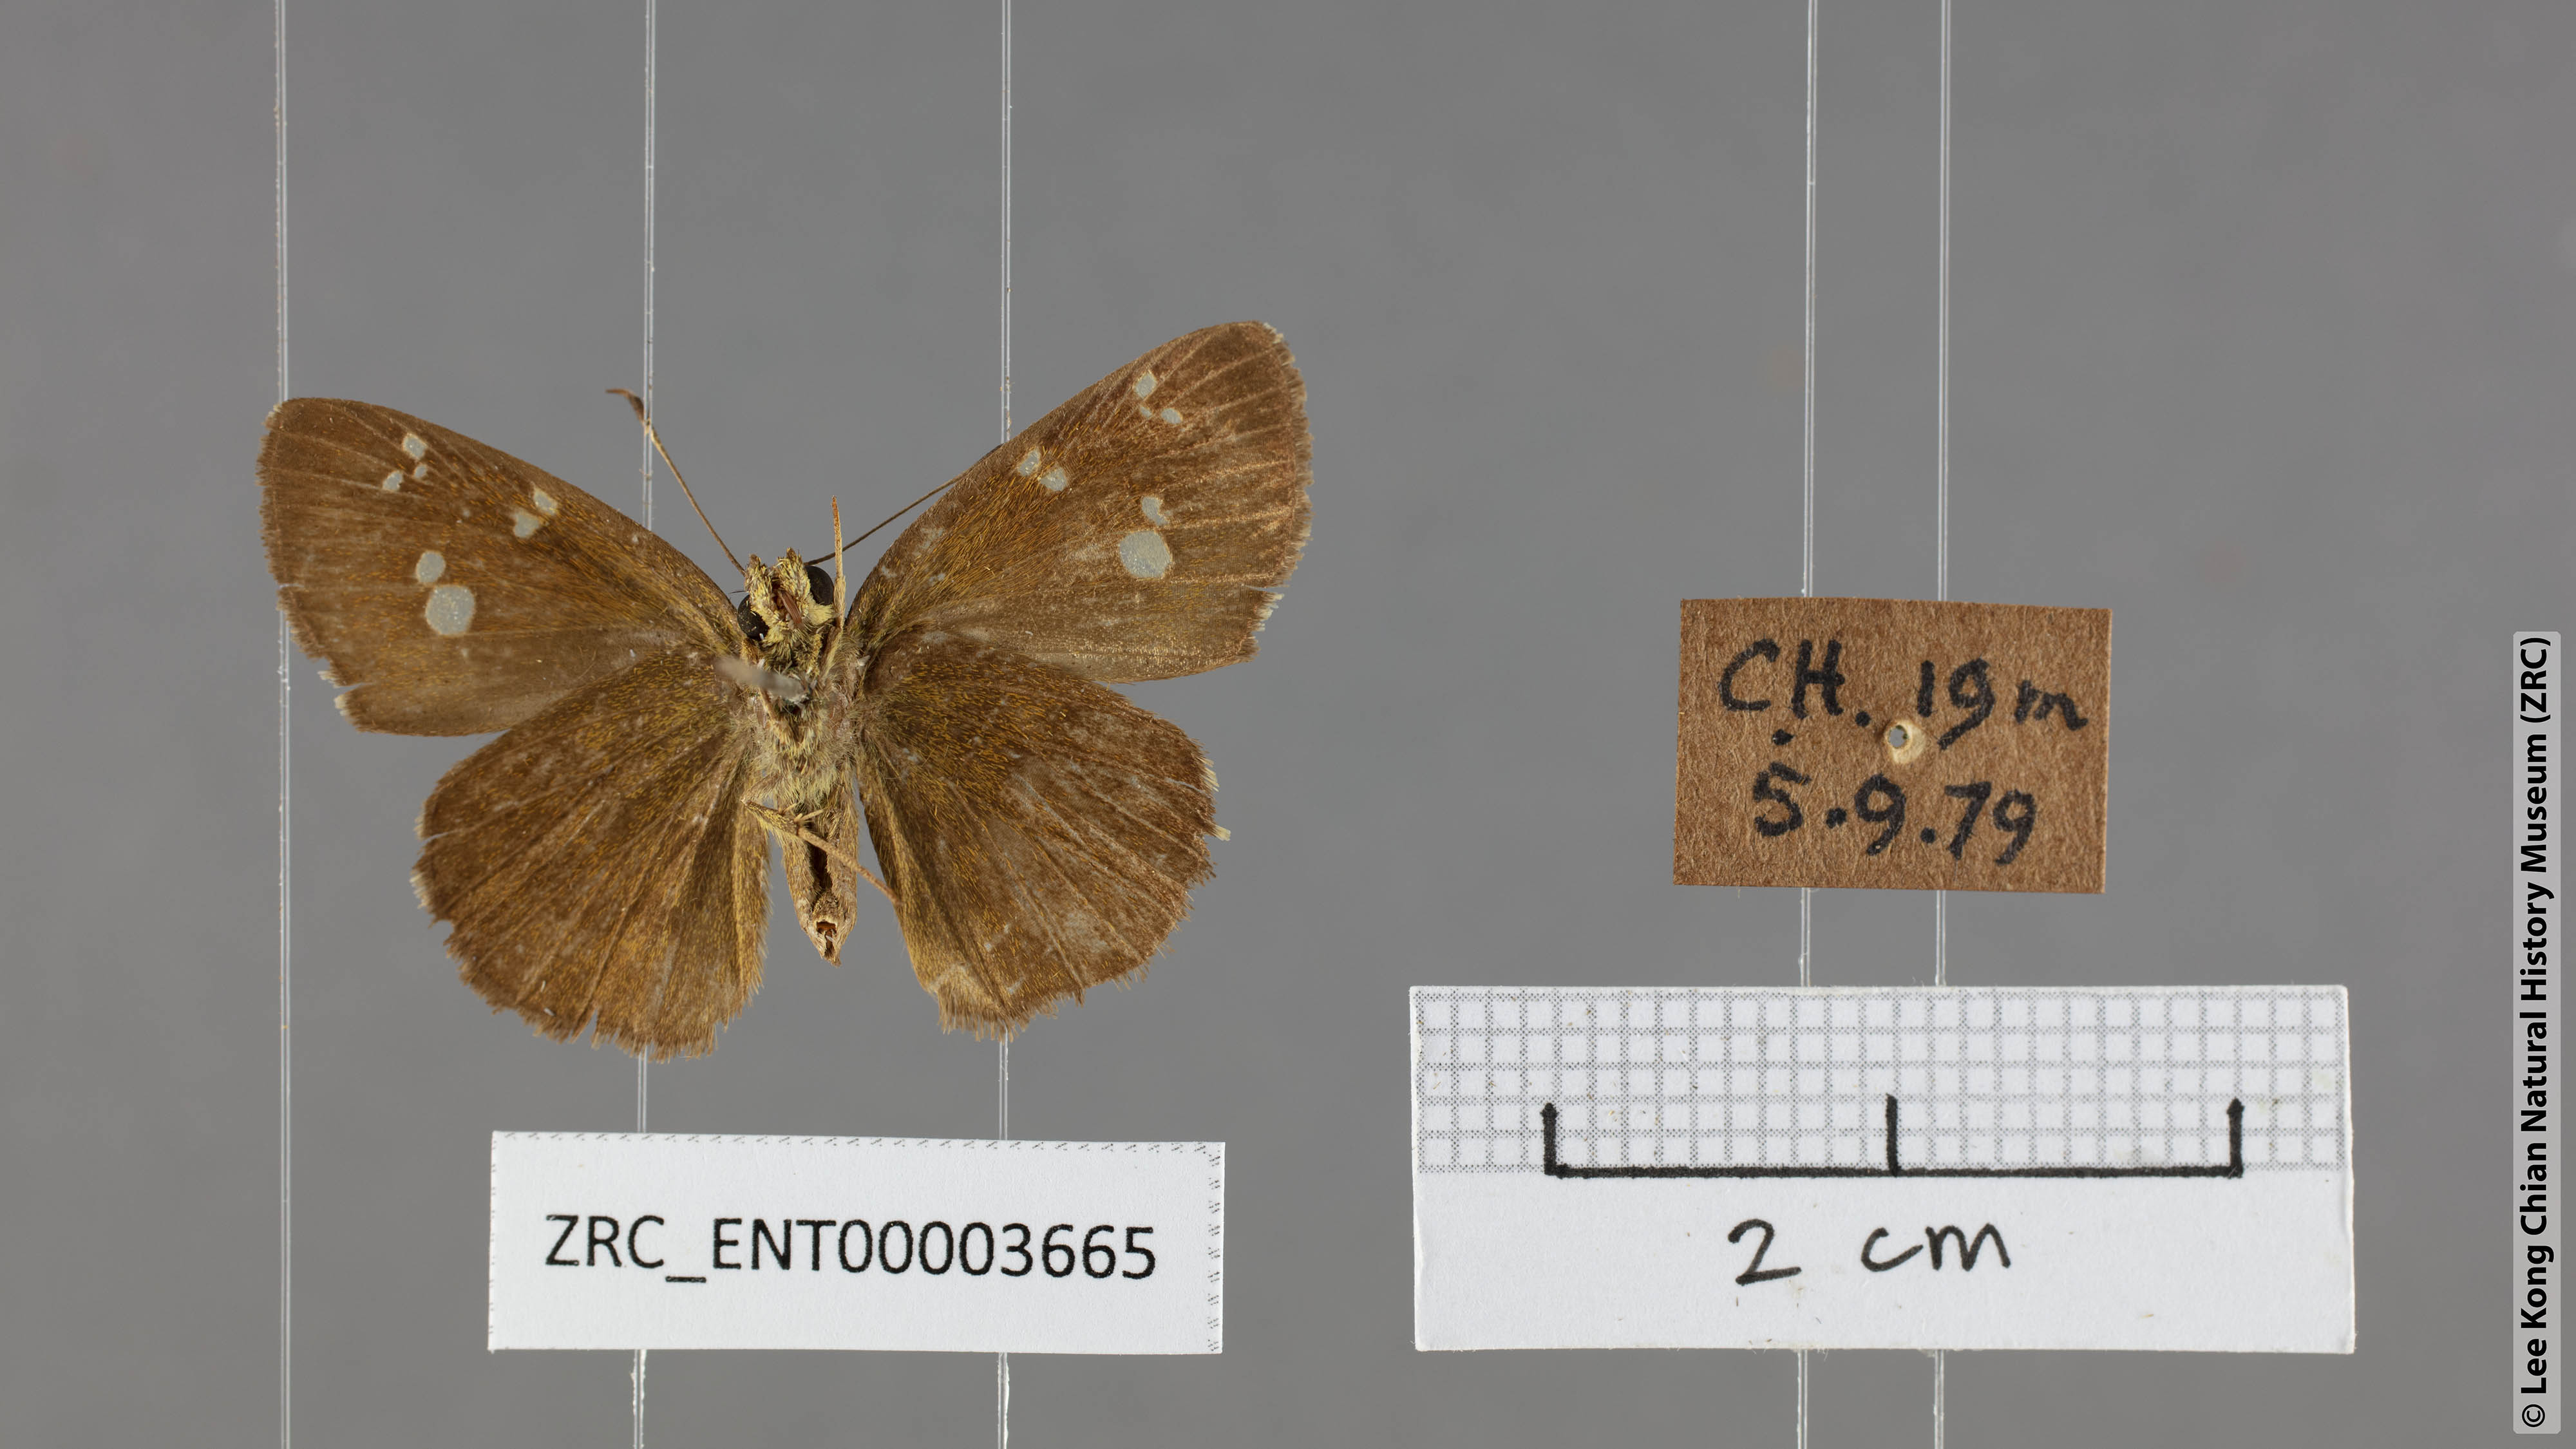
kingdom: Animalia
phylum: Arthropoda
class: Insecta
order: Lepidoptera
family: Hesperiidae
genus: Pseudocoladenia
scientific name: Pseudocoladenia dan
